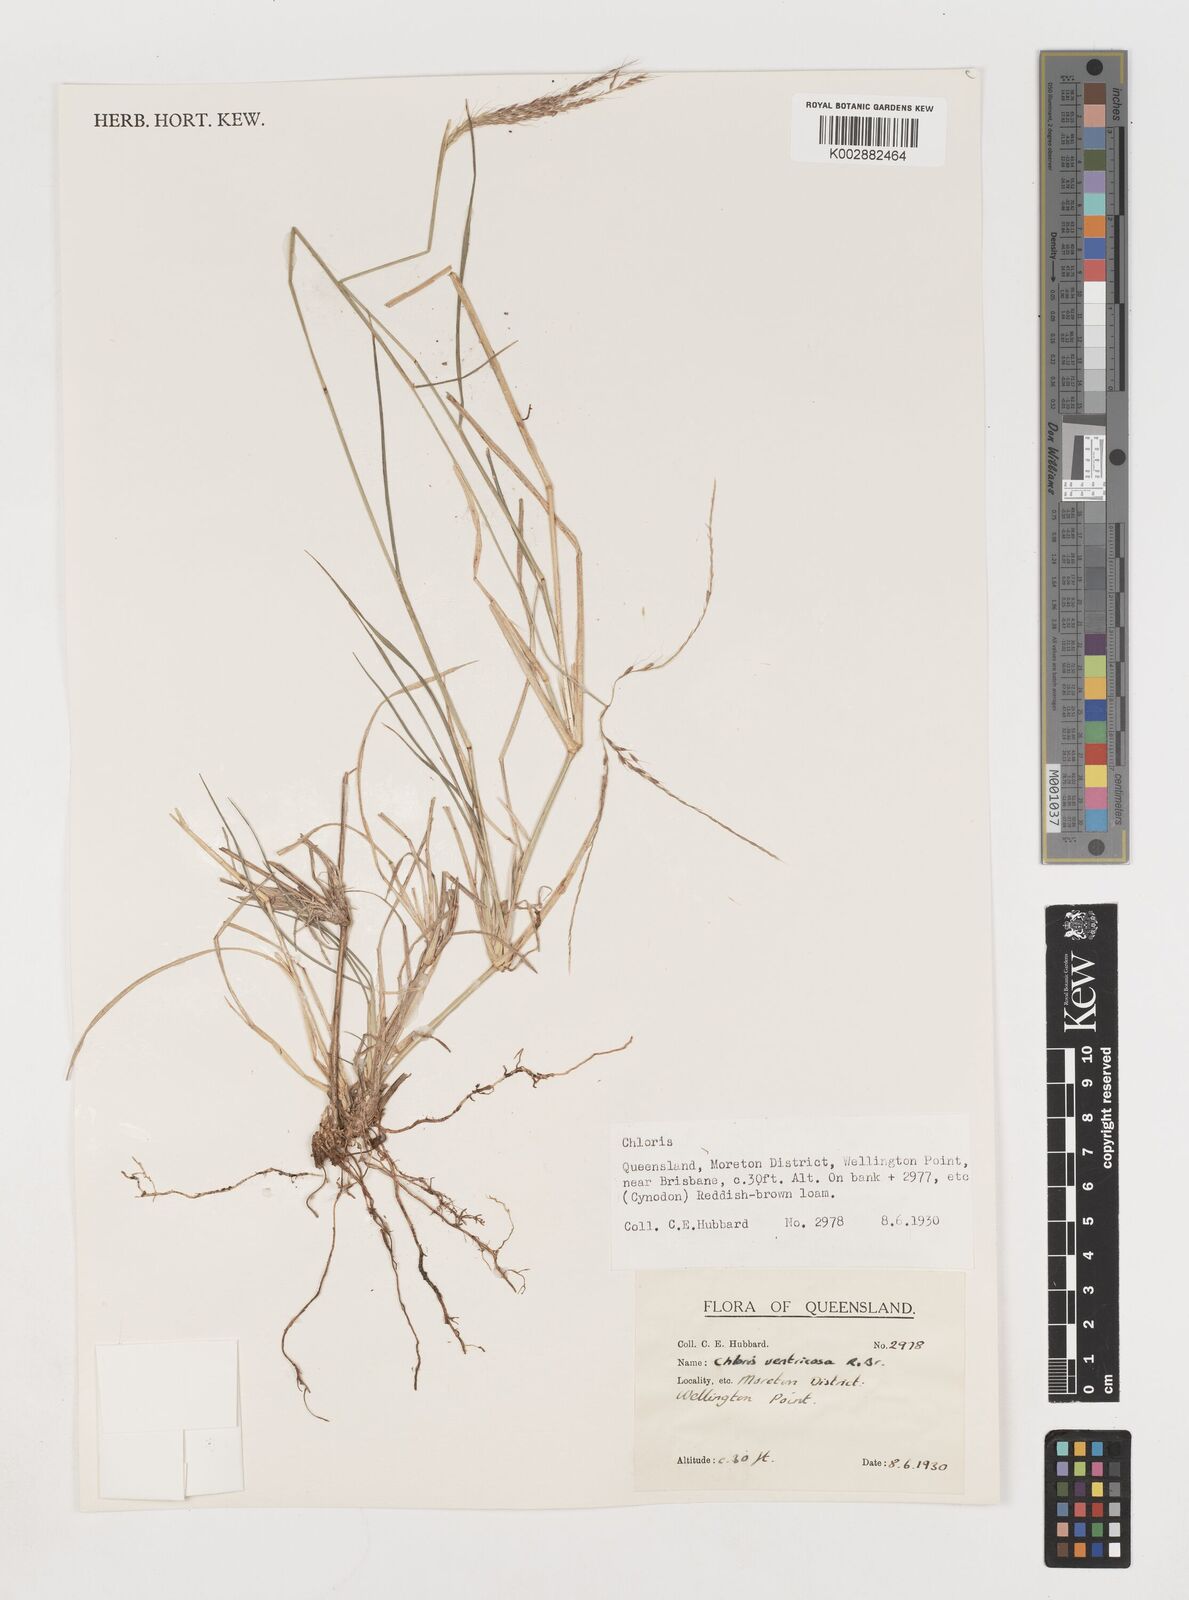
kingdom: Plantae
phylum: Tracheophyta
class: Liliopsida
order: Poales
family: Poaceae
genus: Chloris
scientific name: Chloris ventricosa
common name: Australian windmill grass
